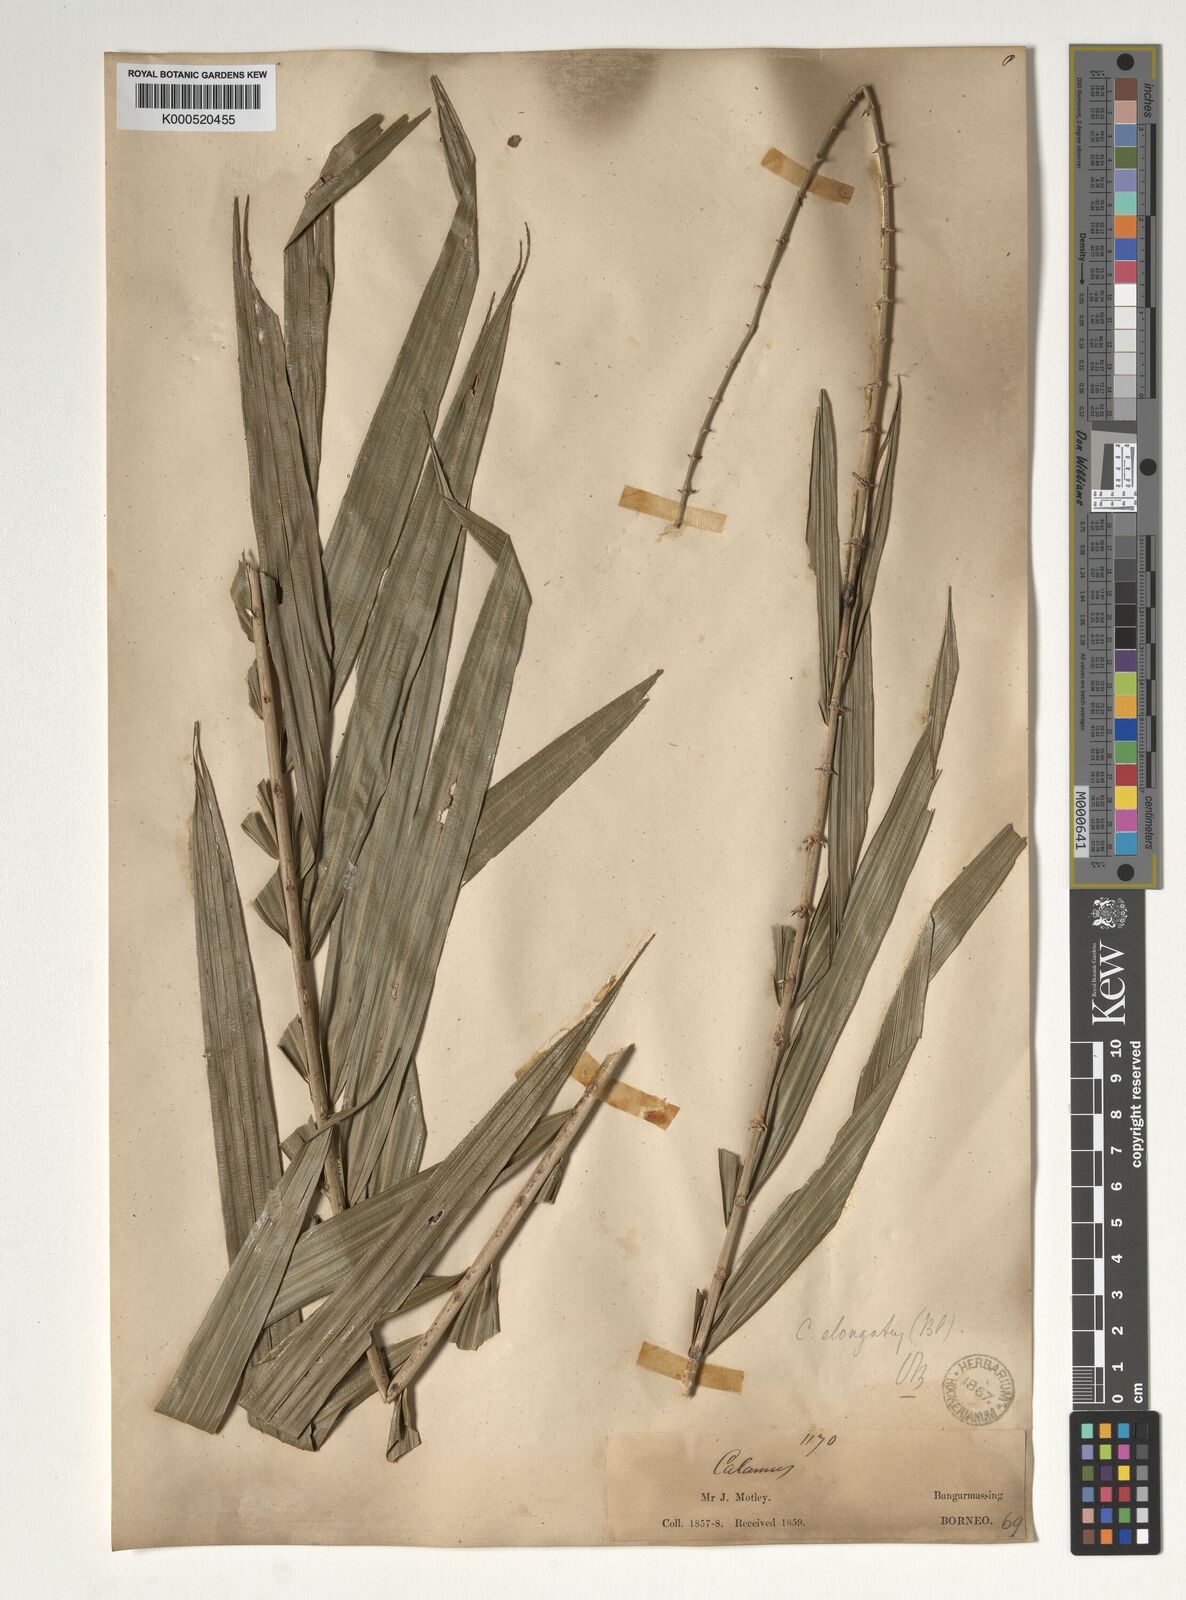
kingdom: Plantae
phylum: Tracheophyta
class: Liliopsida
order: Arecales
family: Arecaceae
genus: Calamus
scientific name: Calamus oblongus
